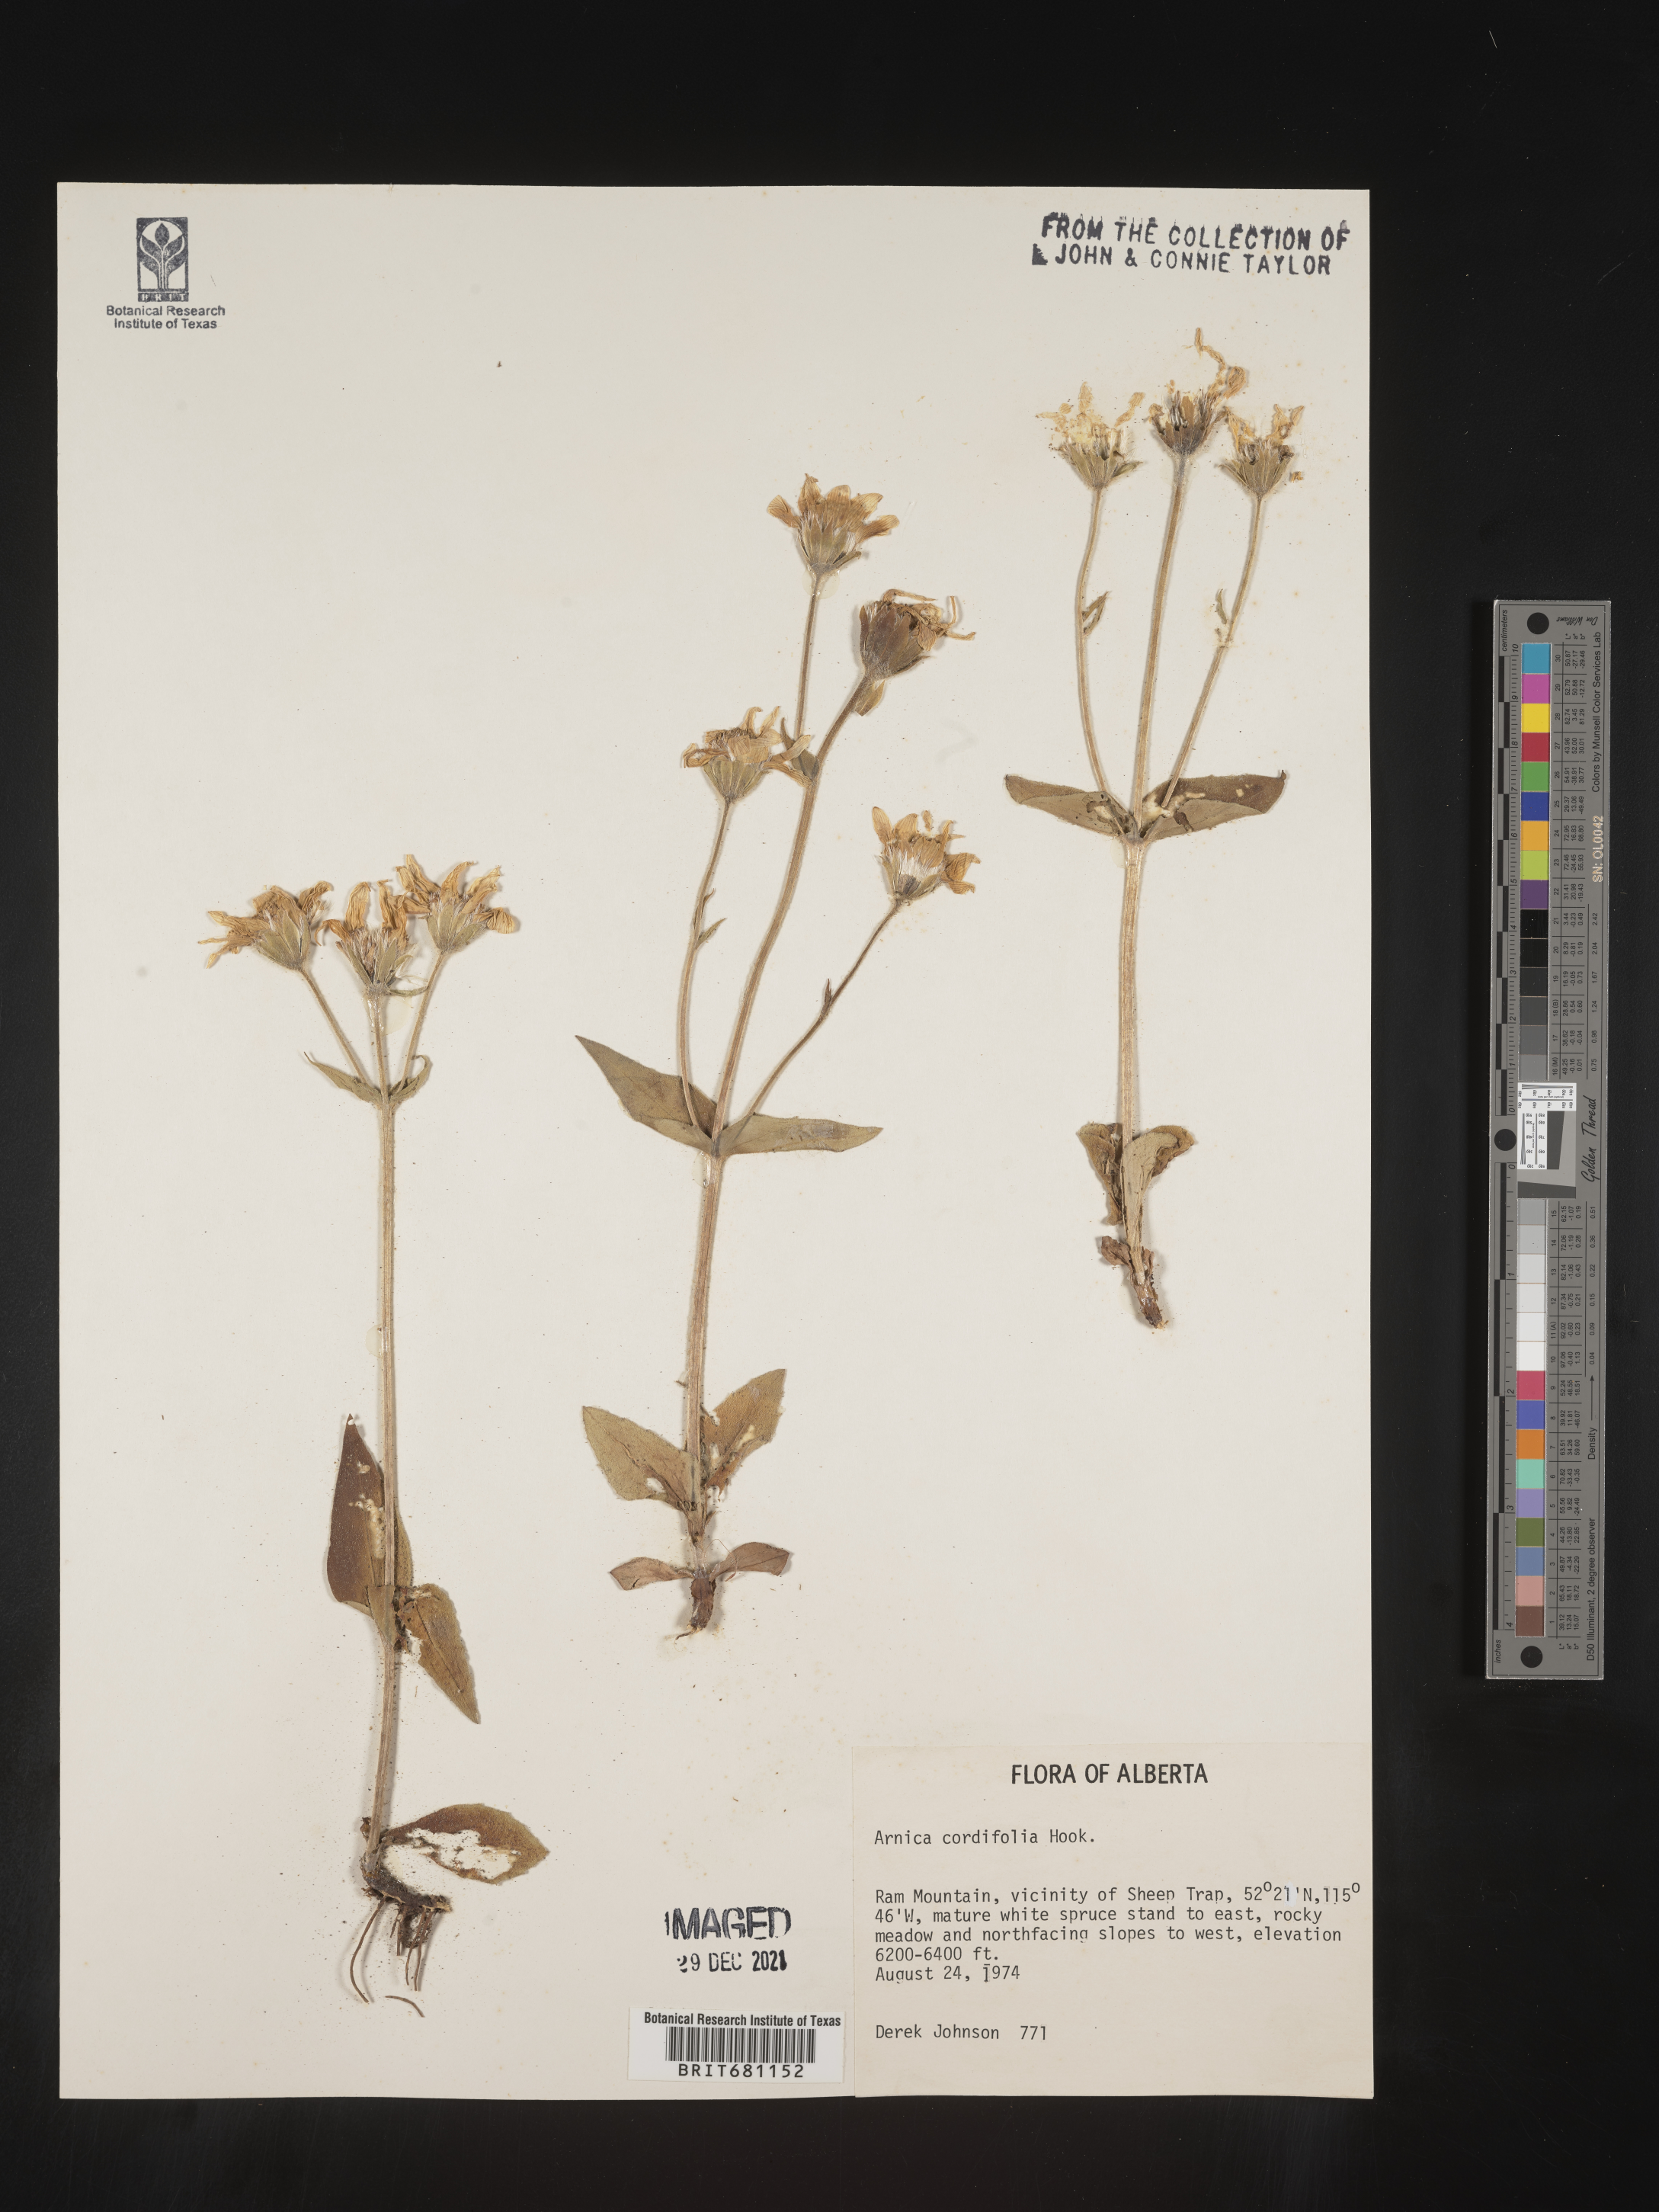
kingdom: Plantae
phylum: Tracheophyta
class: Magnoliopsida
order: Asterales
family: Asteraceae
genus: Arnica
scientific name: Arnica cordifolia
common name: Heart-leaf arnica
